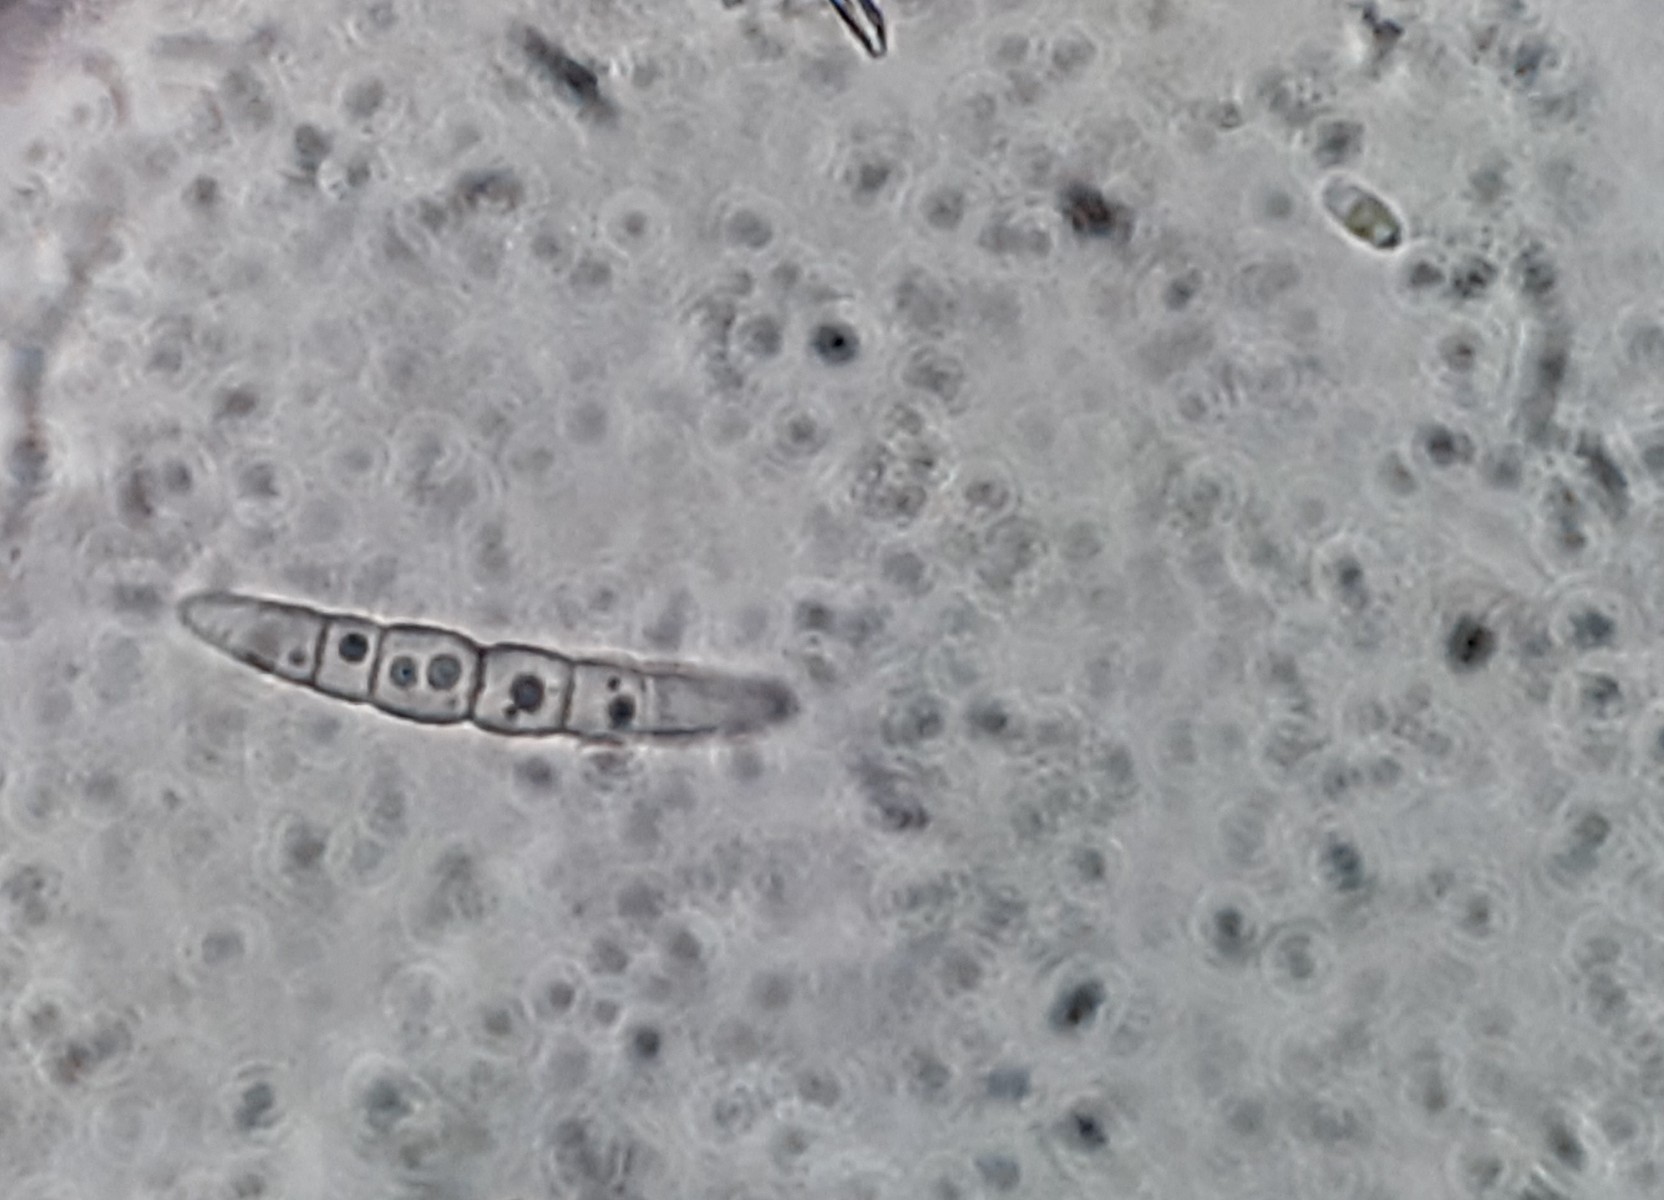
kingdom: Fungi
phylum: Ascomycota
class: Dothideomycetes
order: Pleosporales
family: Phaeosphaeriaceae
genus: Phaeosphaeria
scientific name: Phaeosphaeria sowerbyi
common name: kål-kulkegle
